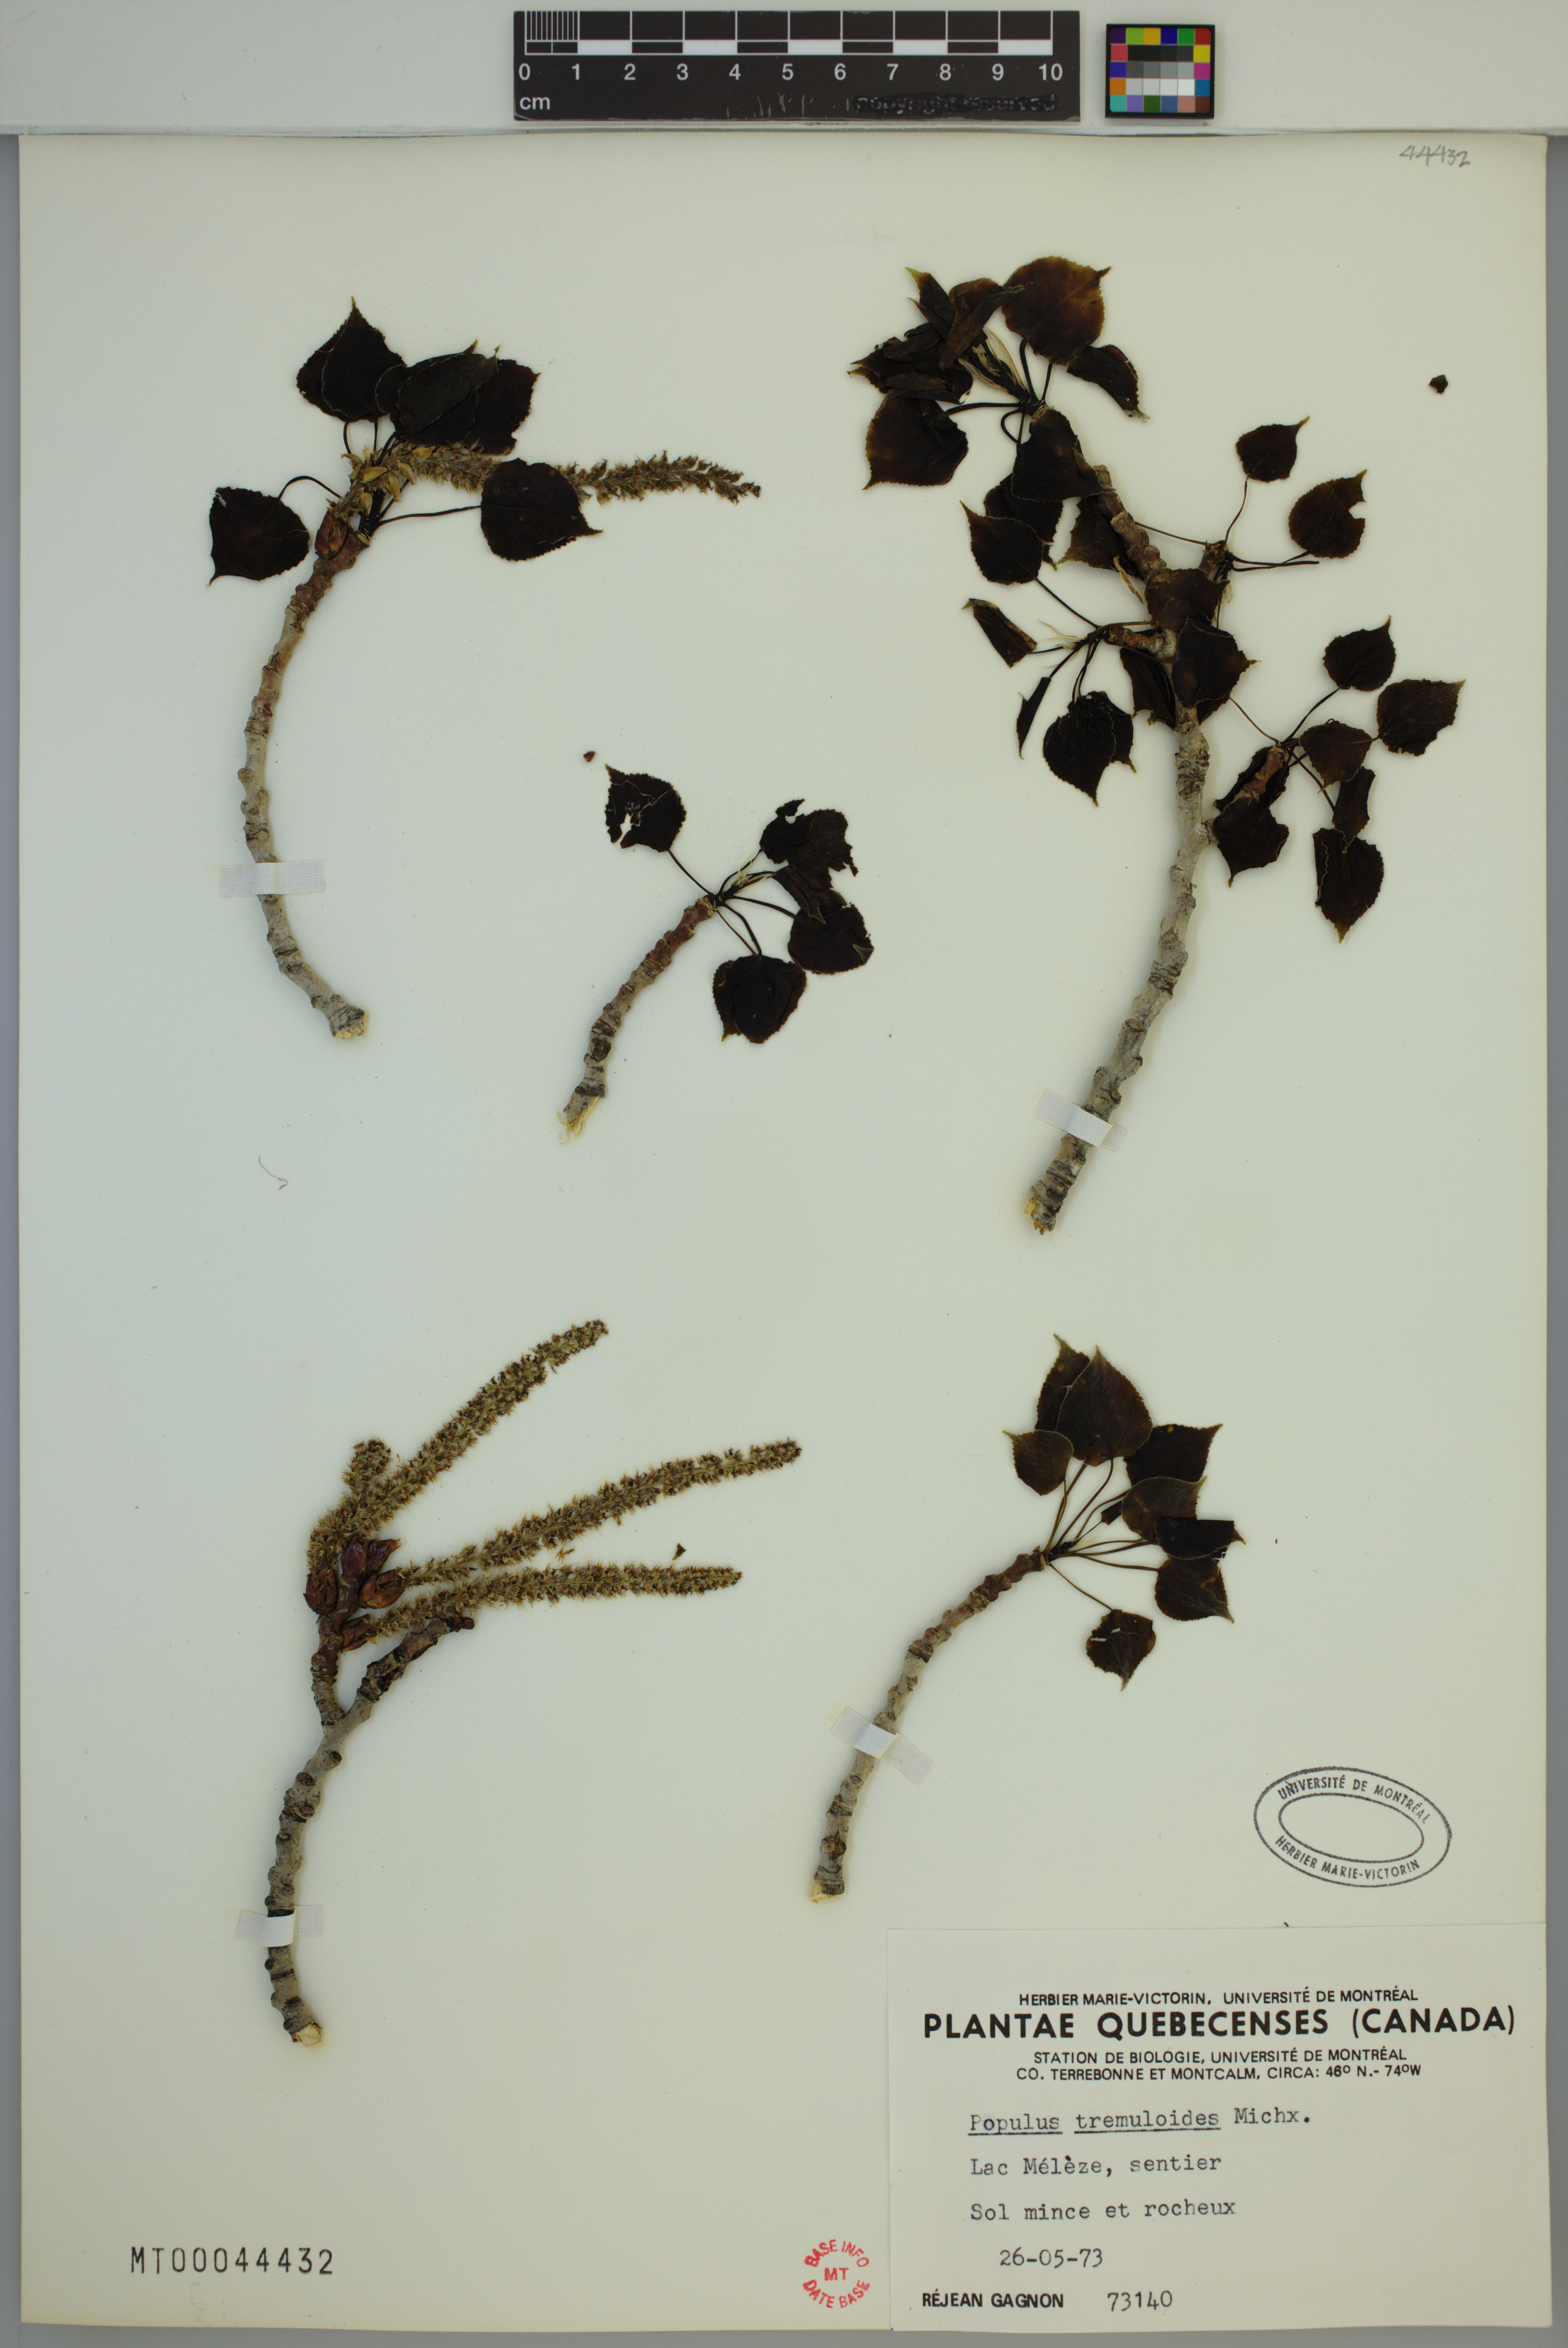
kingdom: Plantae
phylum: Tracheophyta
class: Magnoliopsida
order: Malpighiales
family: Salicaceae
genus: Populus
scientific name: Populus tremuloides
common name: Quaking aspen
